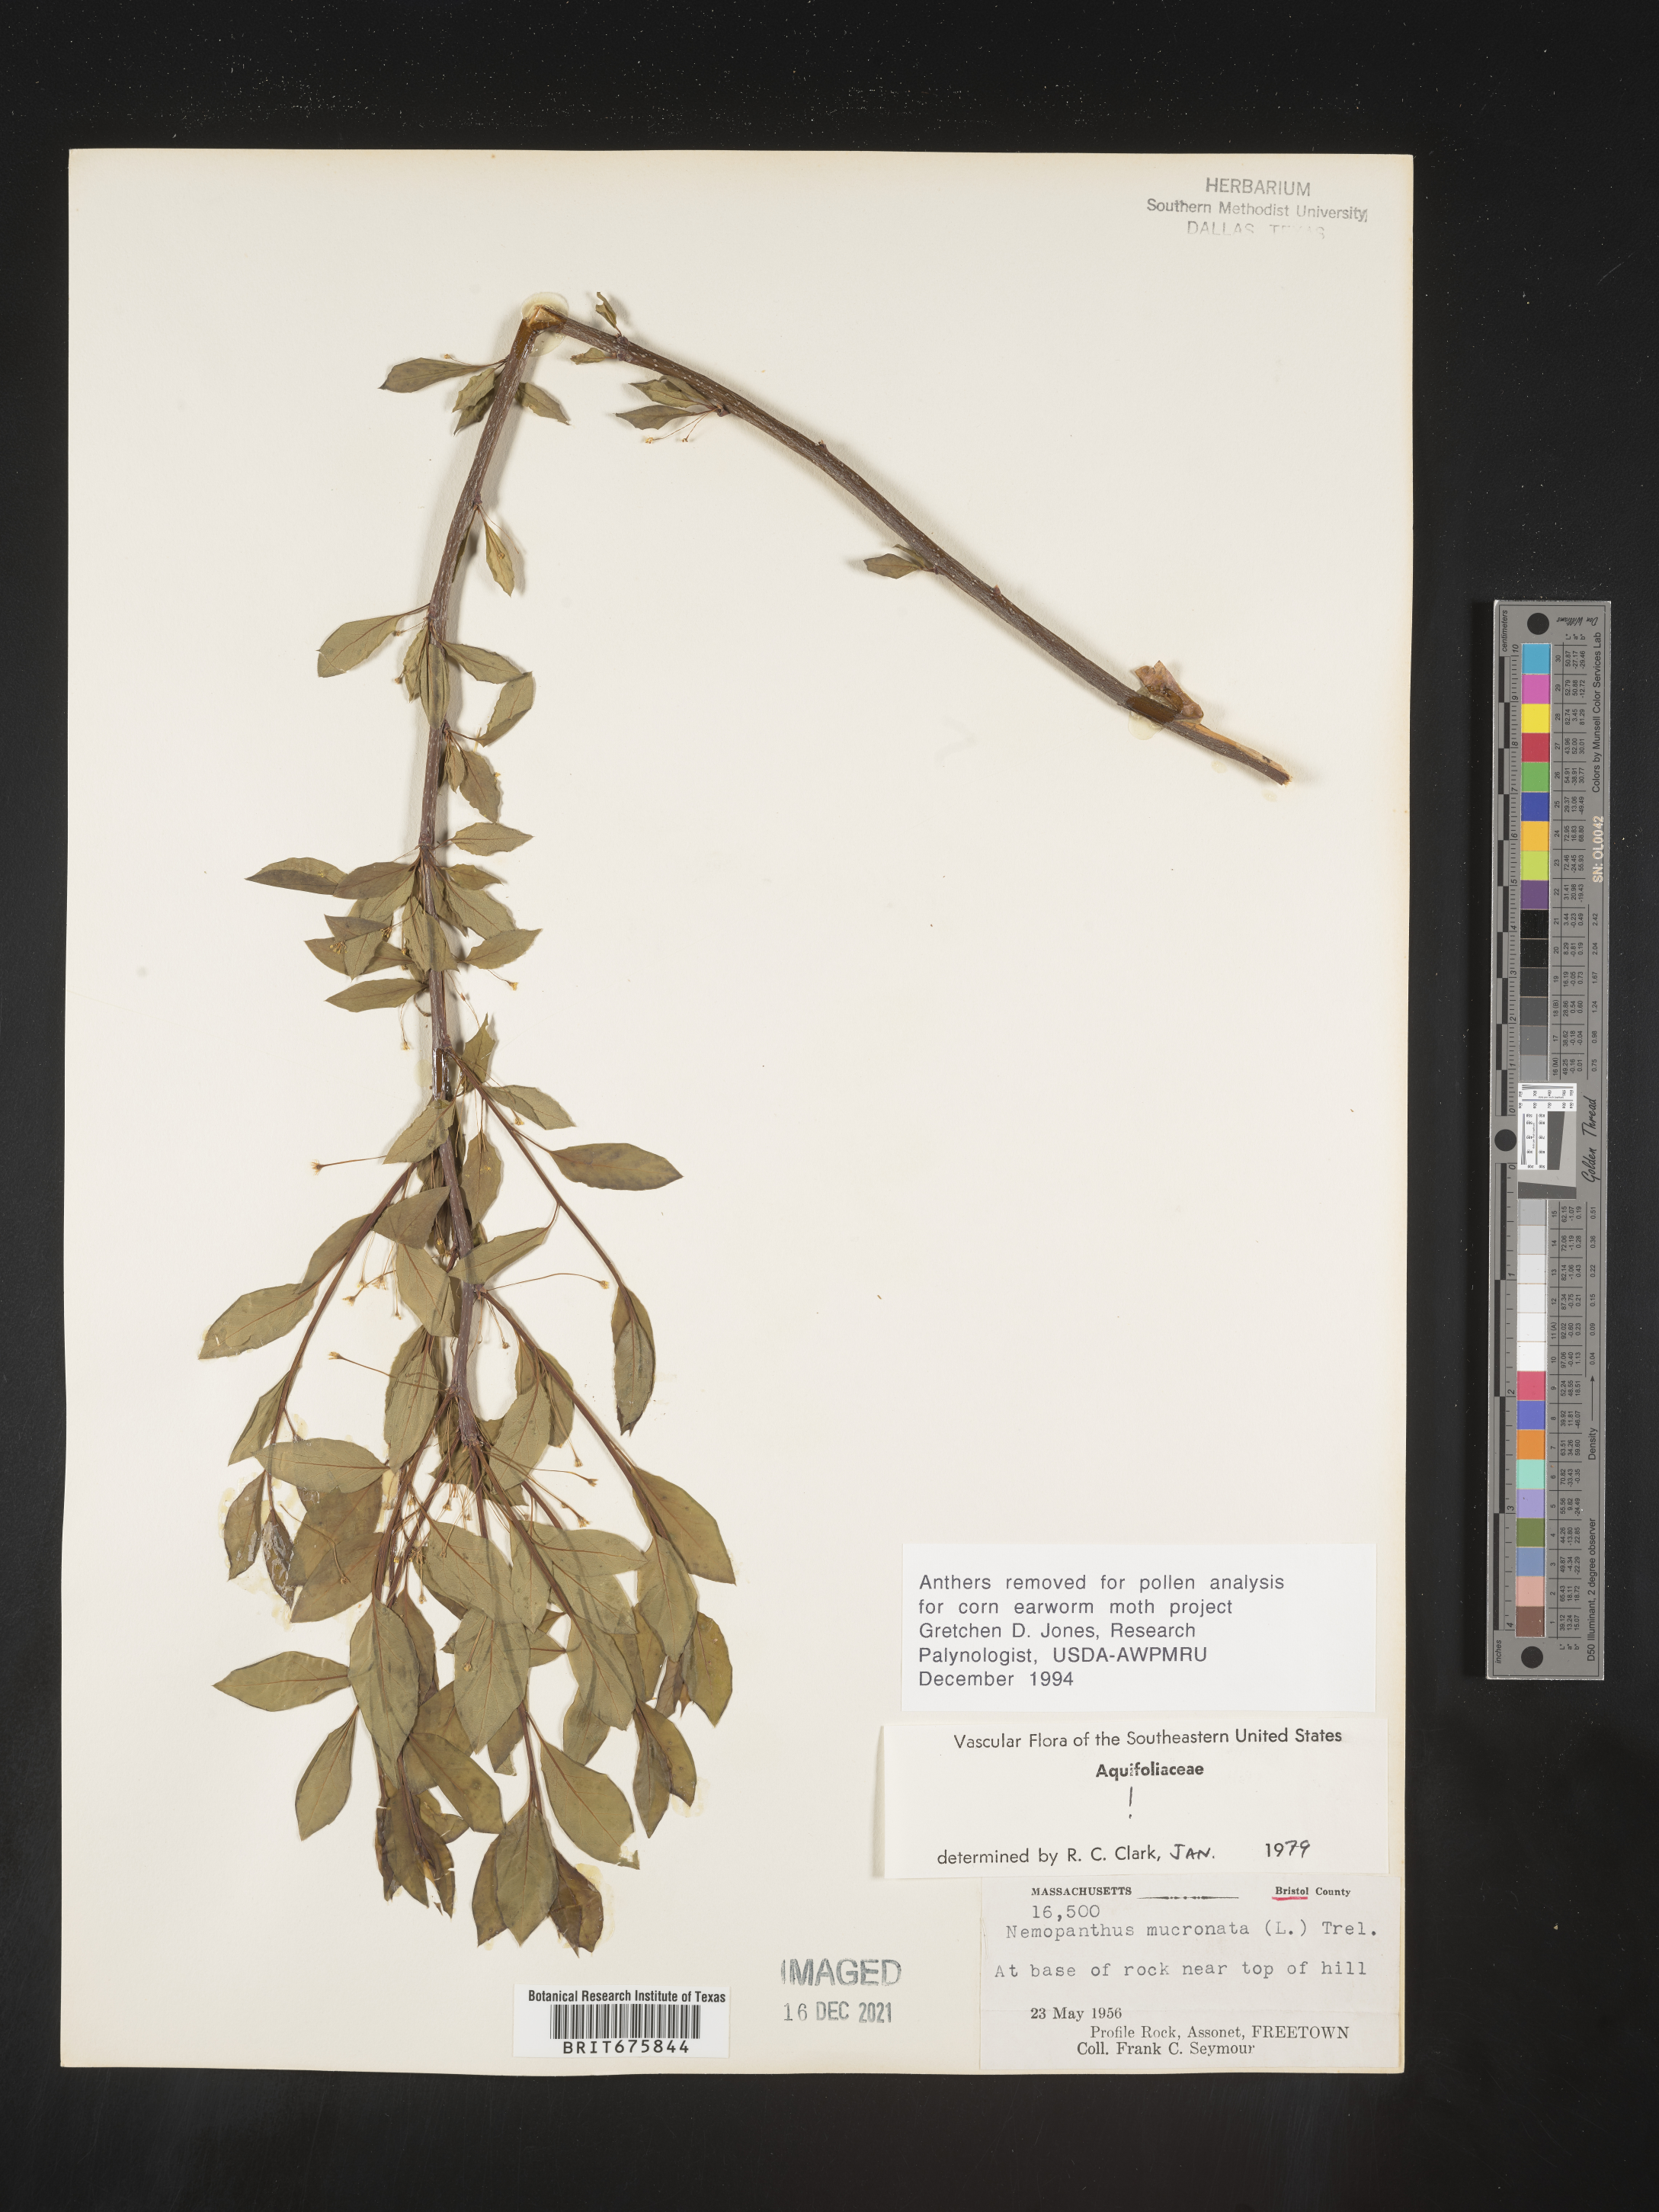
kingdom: Plantae
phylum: Tracheophyta
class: Magnoliopsida
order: Aquifoliales
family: Aquifoliaceae
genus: Ilex
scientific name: Ilex mucronata
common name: Catberry
